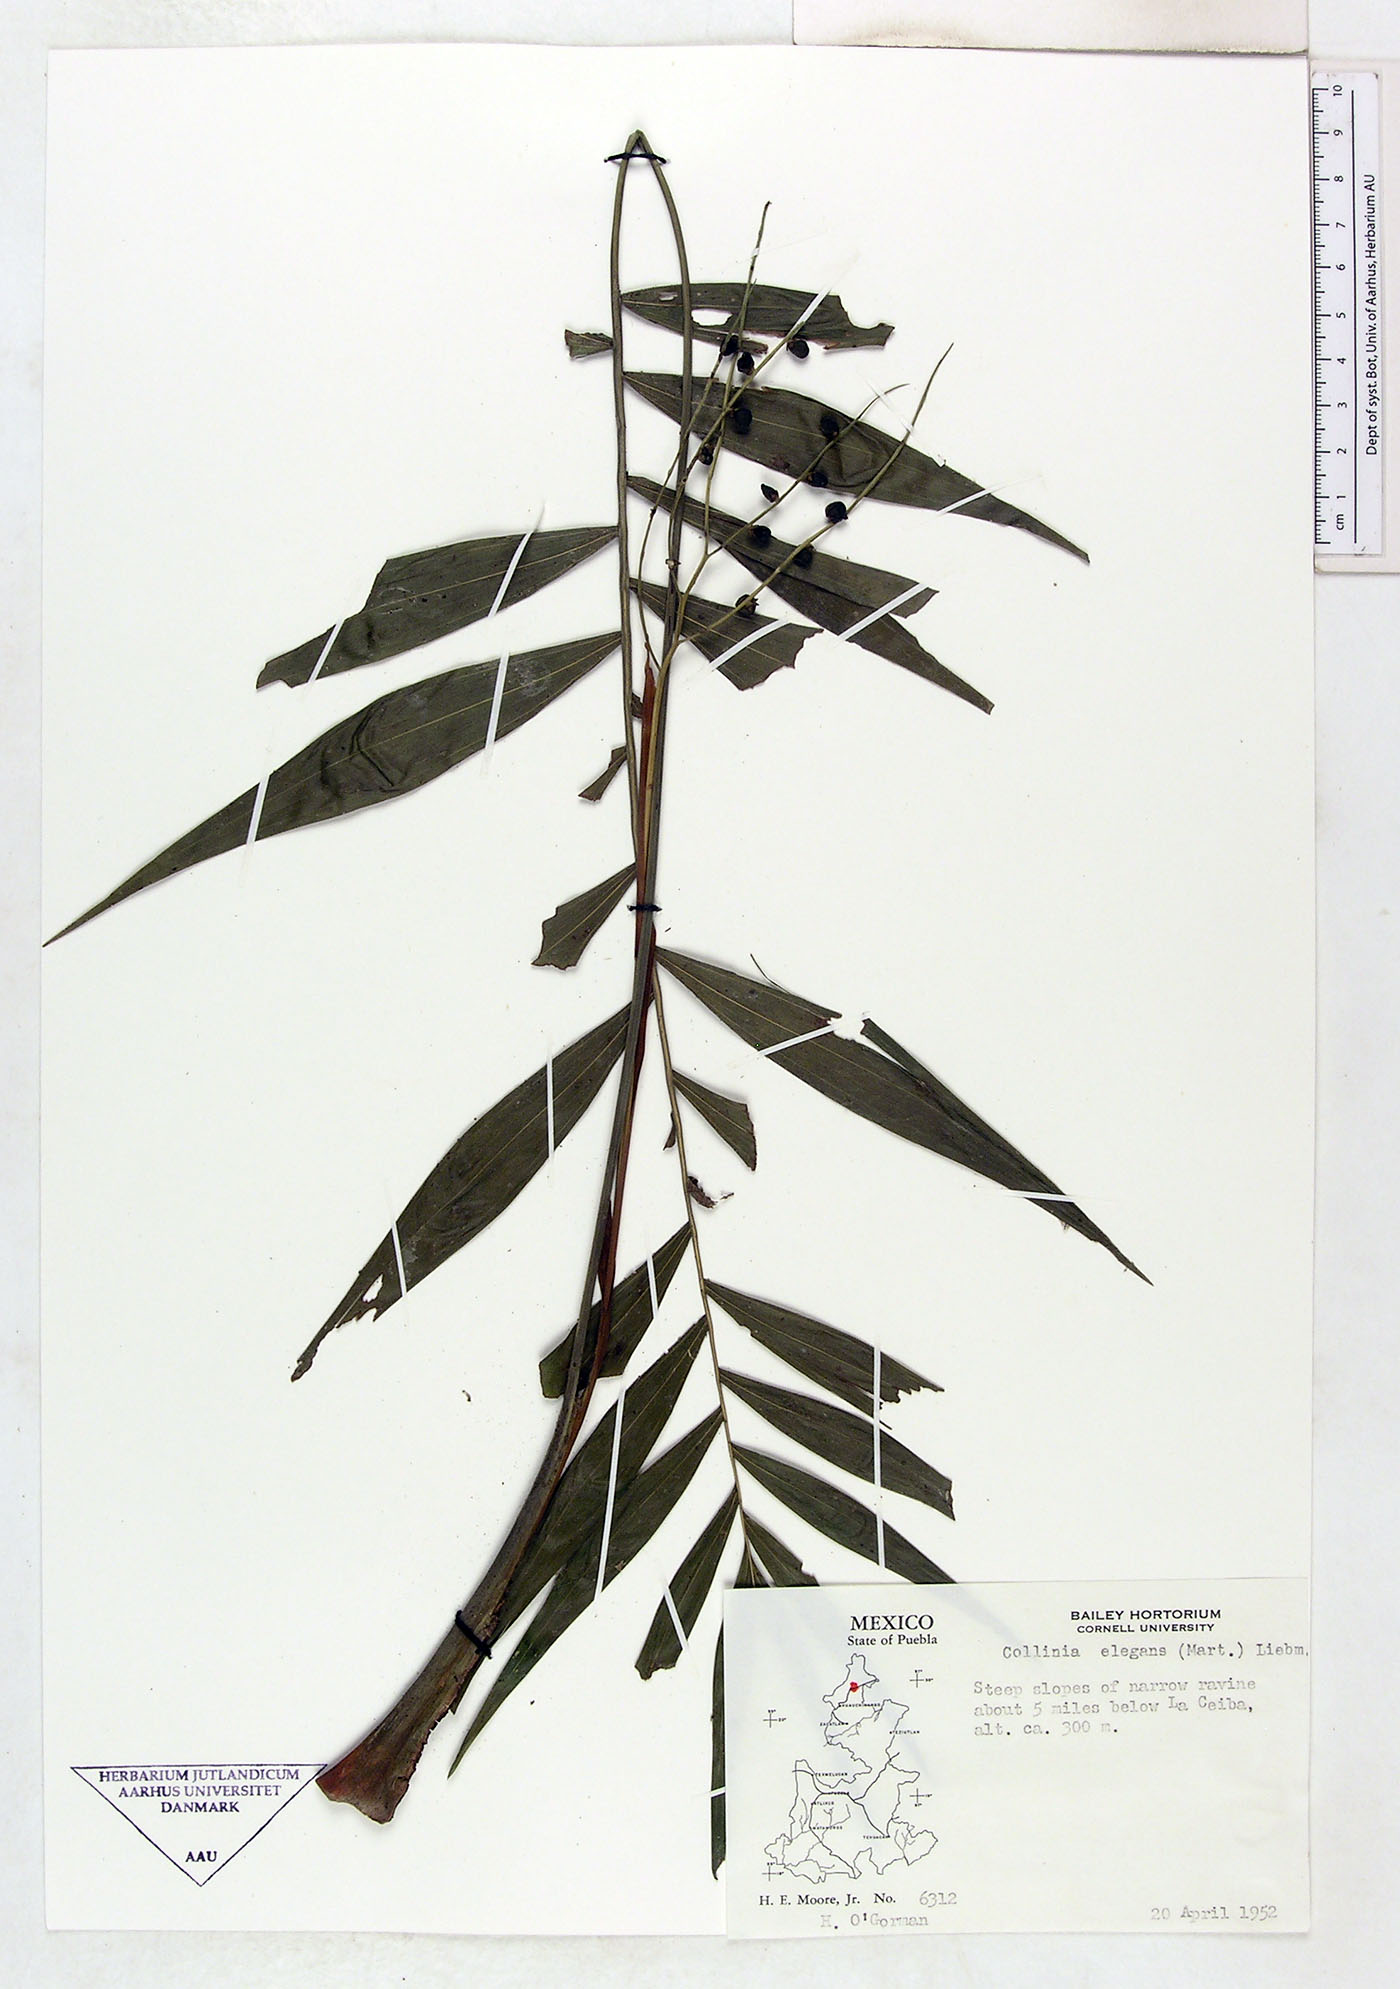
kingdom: Plantae
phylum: Tracheophyta
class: Liliopsida
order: Arecales
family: Arecaceae
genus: Chamaedorea
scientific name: Chamaedorea elegans
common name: Good-luck palm
